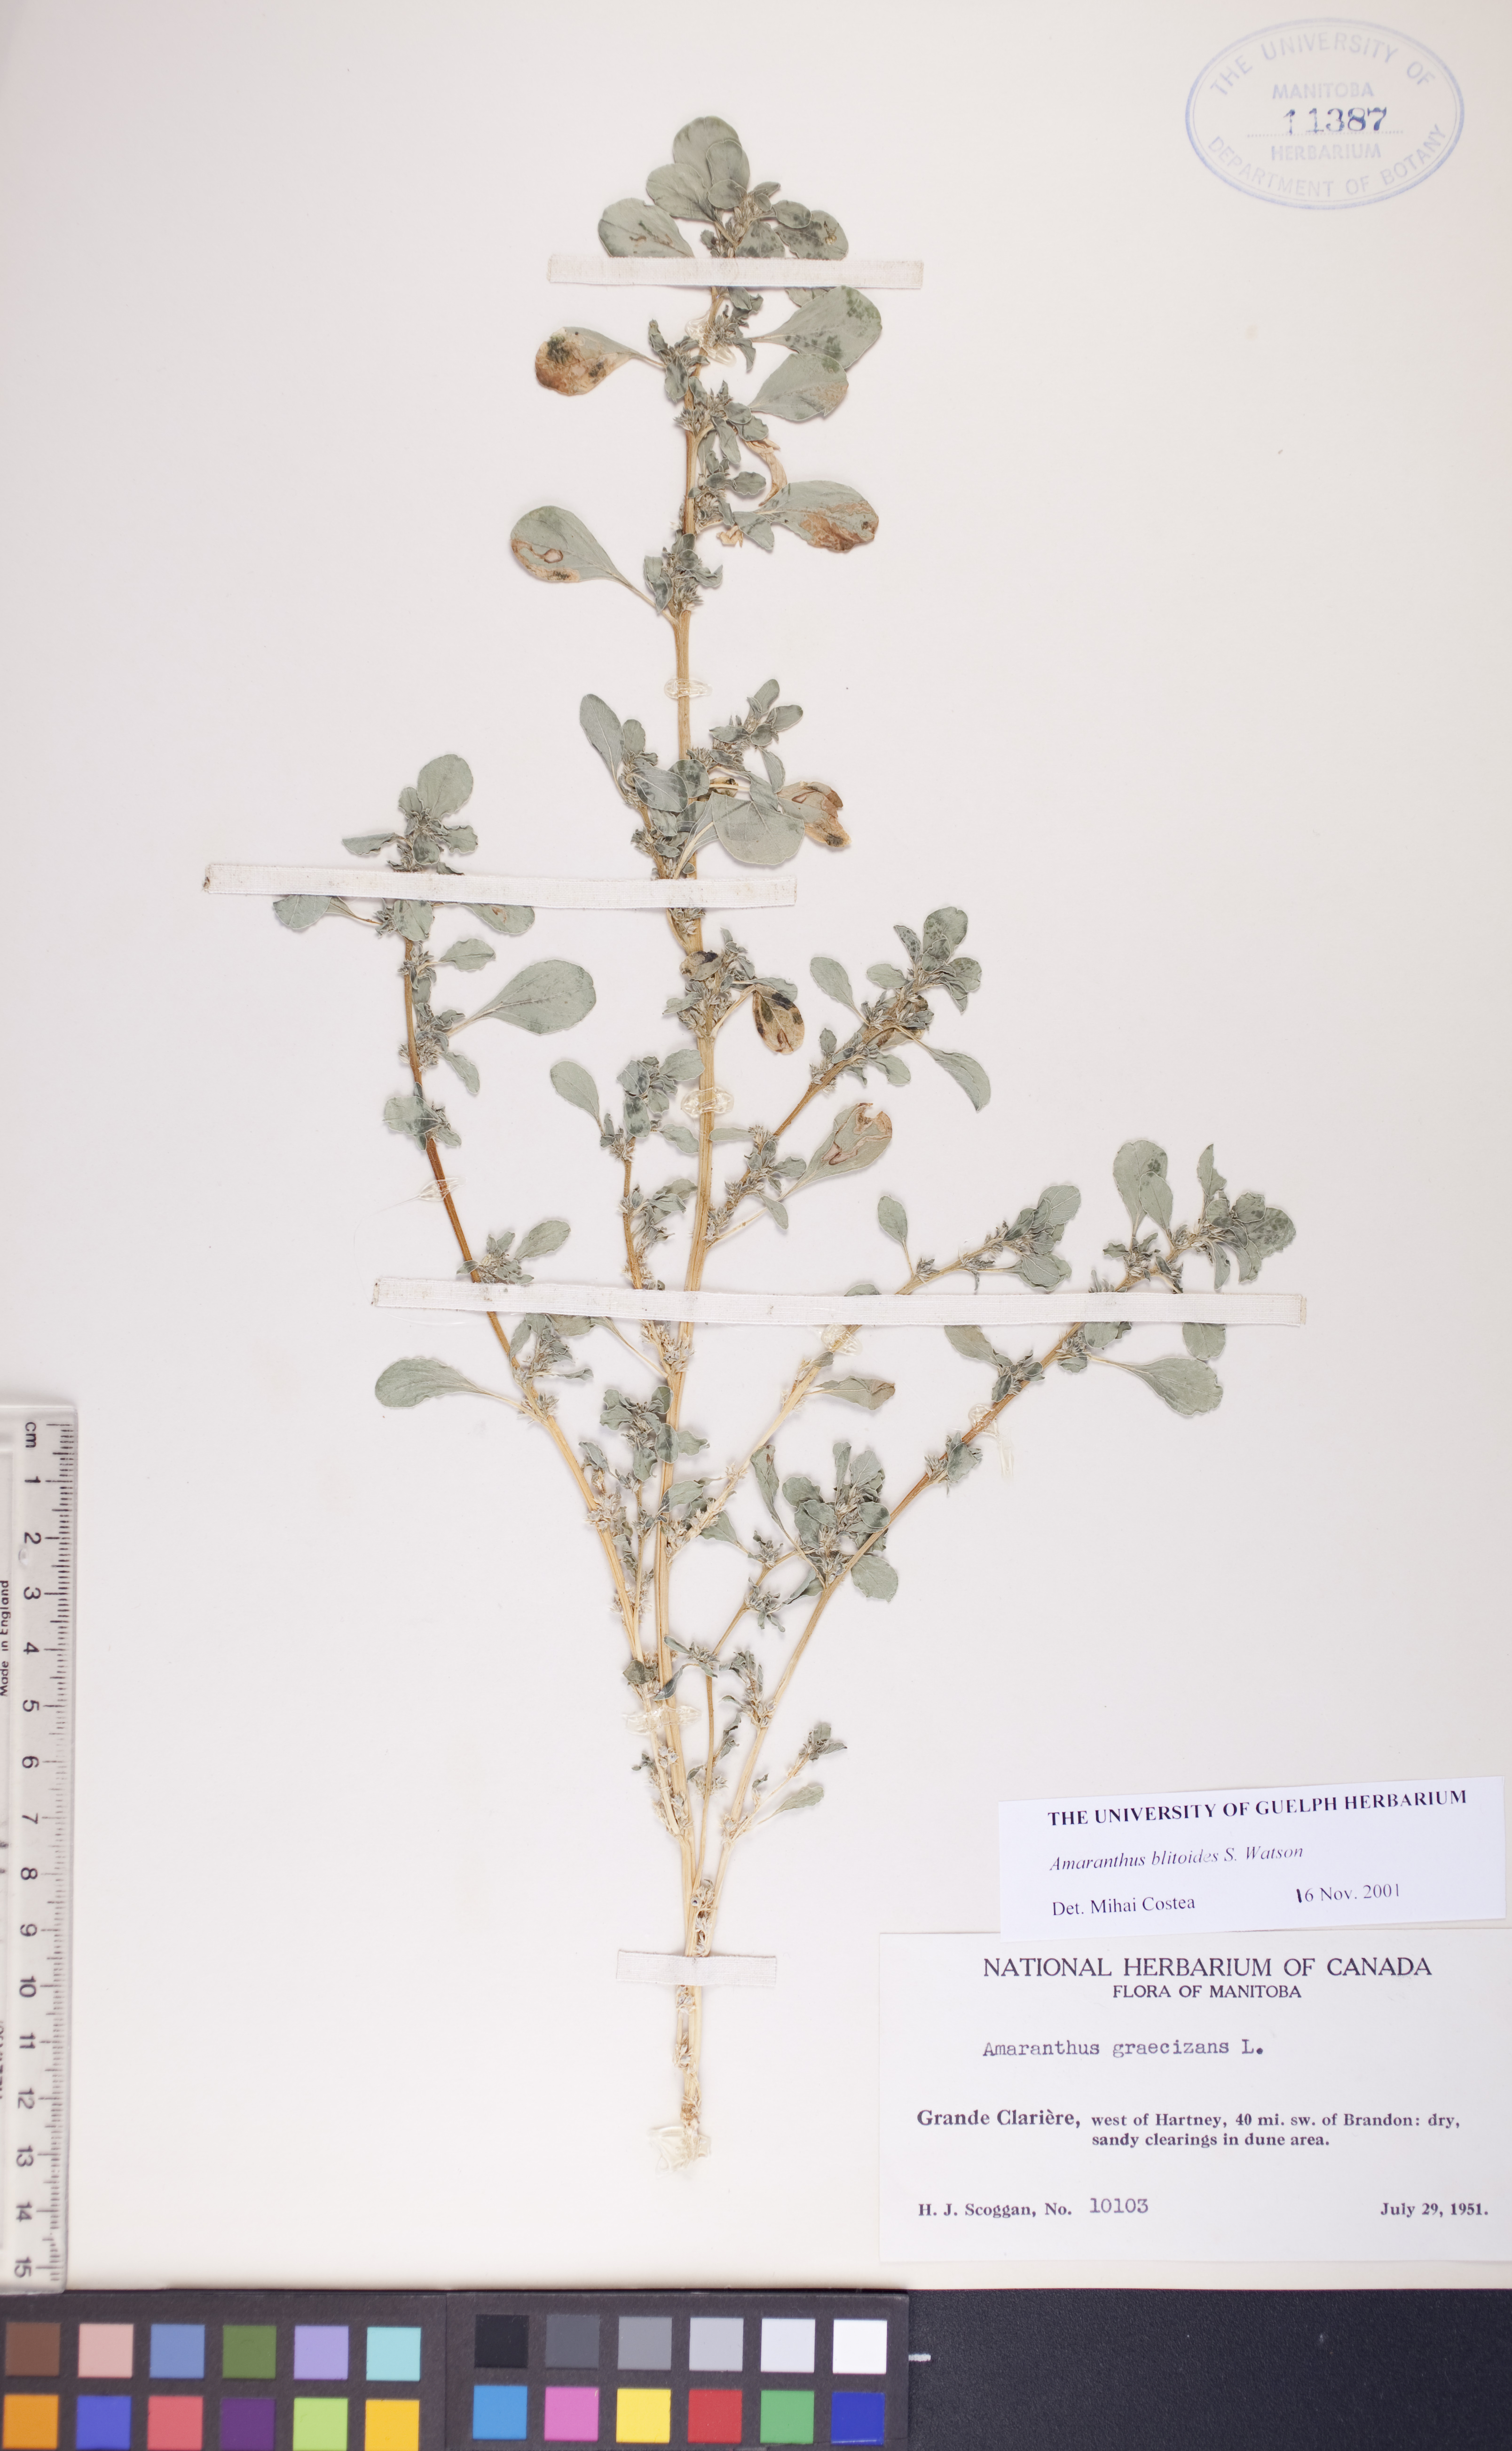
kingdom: Plantae
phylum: Tracheophyta
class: Magnoliopsida
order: Caryophyllales
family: Amaranthaceae
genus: Amaranthus
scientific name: Amaranthus blitoides
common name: Prostrate pigweed
